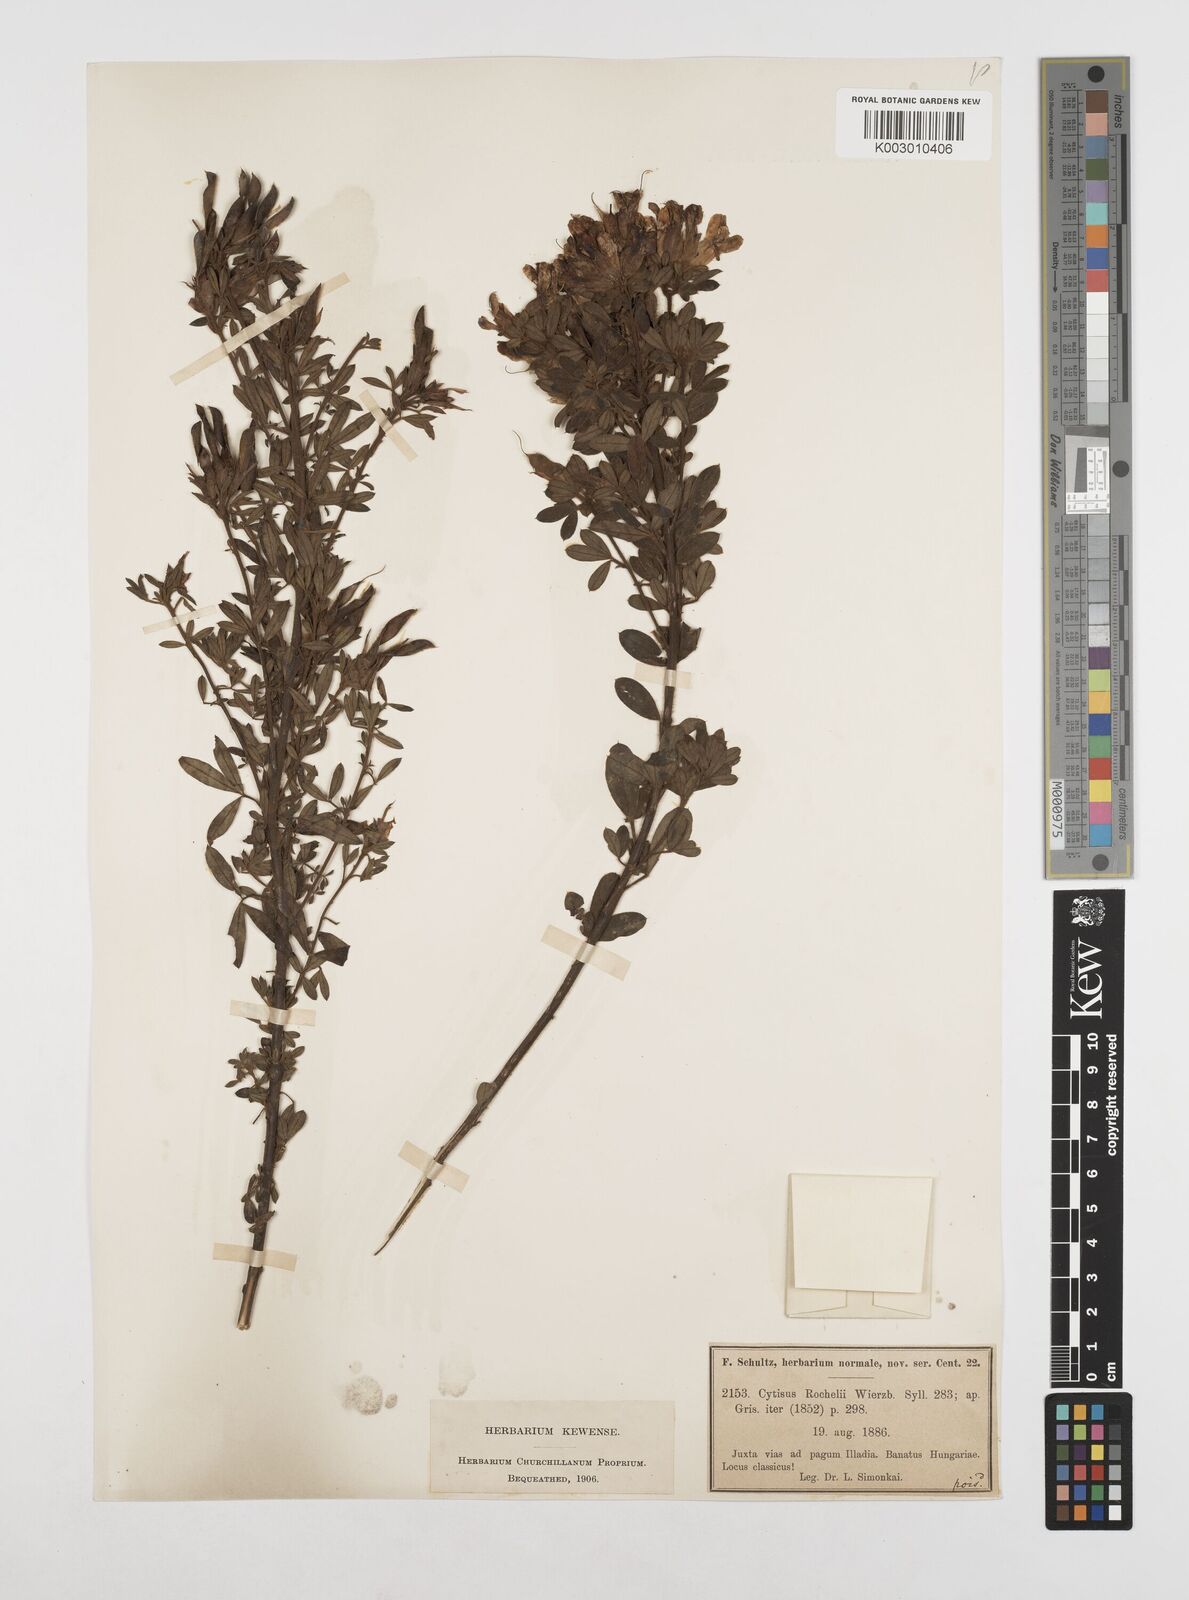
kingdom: Plantae
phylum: Tracheophyta
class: Magnoliopsida
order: Fabales
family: Fabaceae
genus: Chamaecytisus
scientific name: Chamaecytisus rochelii
